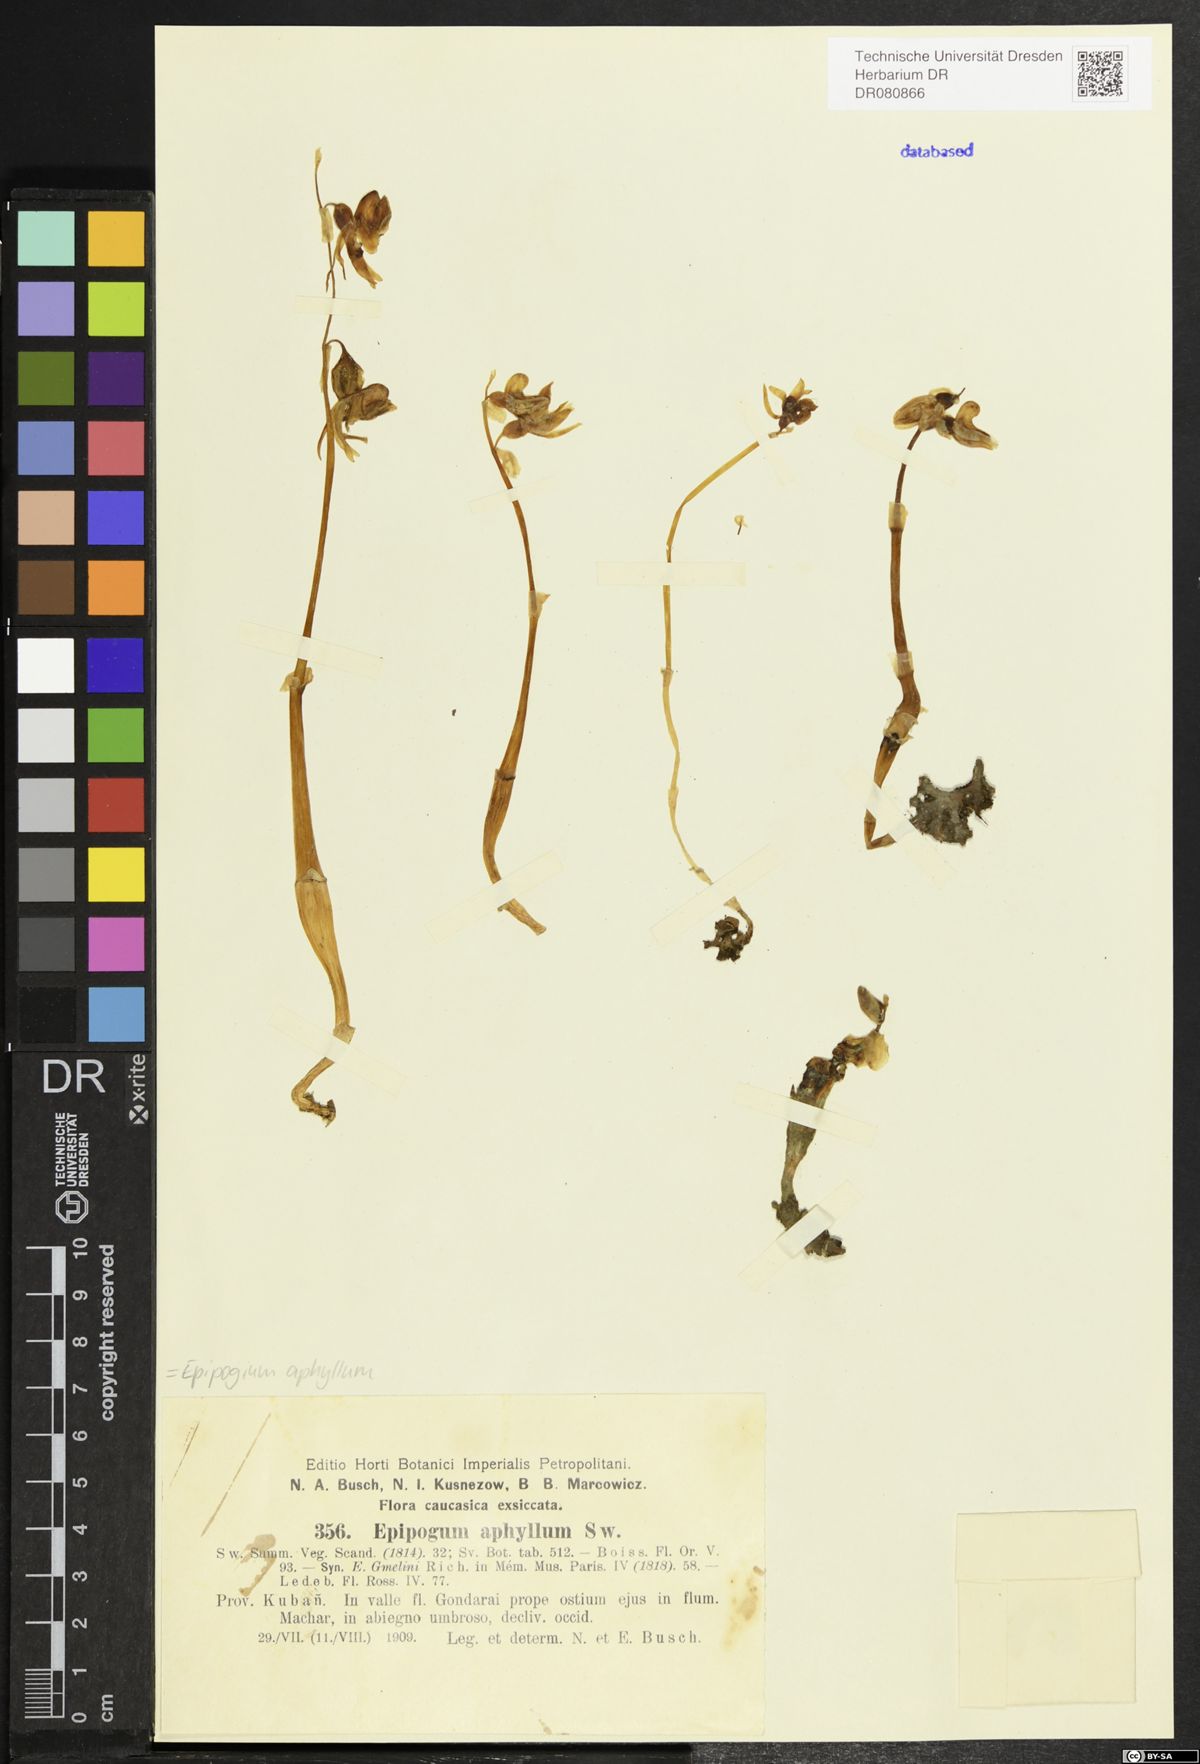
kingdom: Plantae
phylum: Tracheophyta
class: Liliopsida
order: Asparagales
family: Orchidaceae
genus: Epipogium
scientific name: Epipogium aphyllum
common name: Ghost orchid
